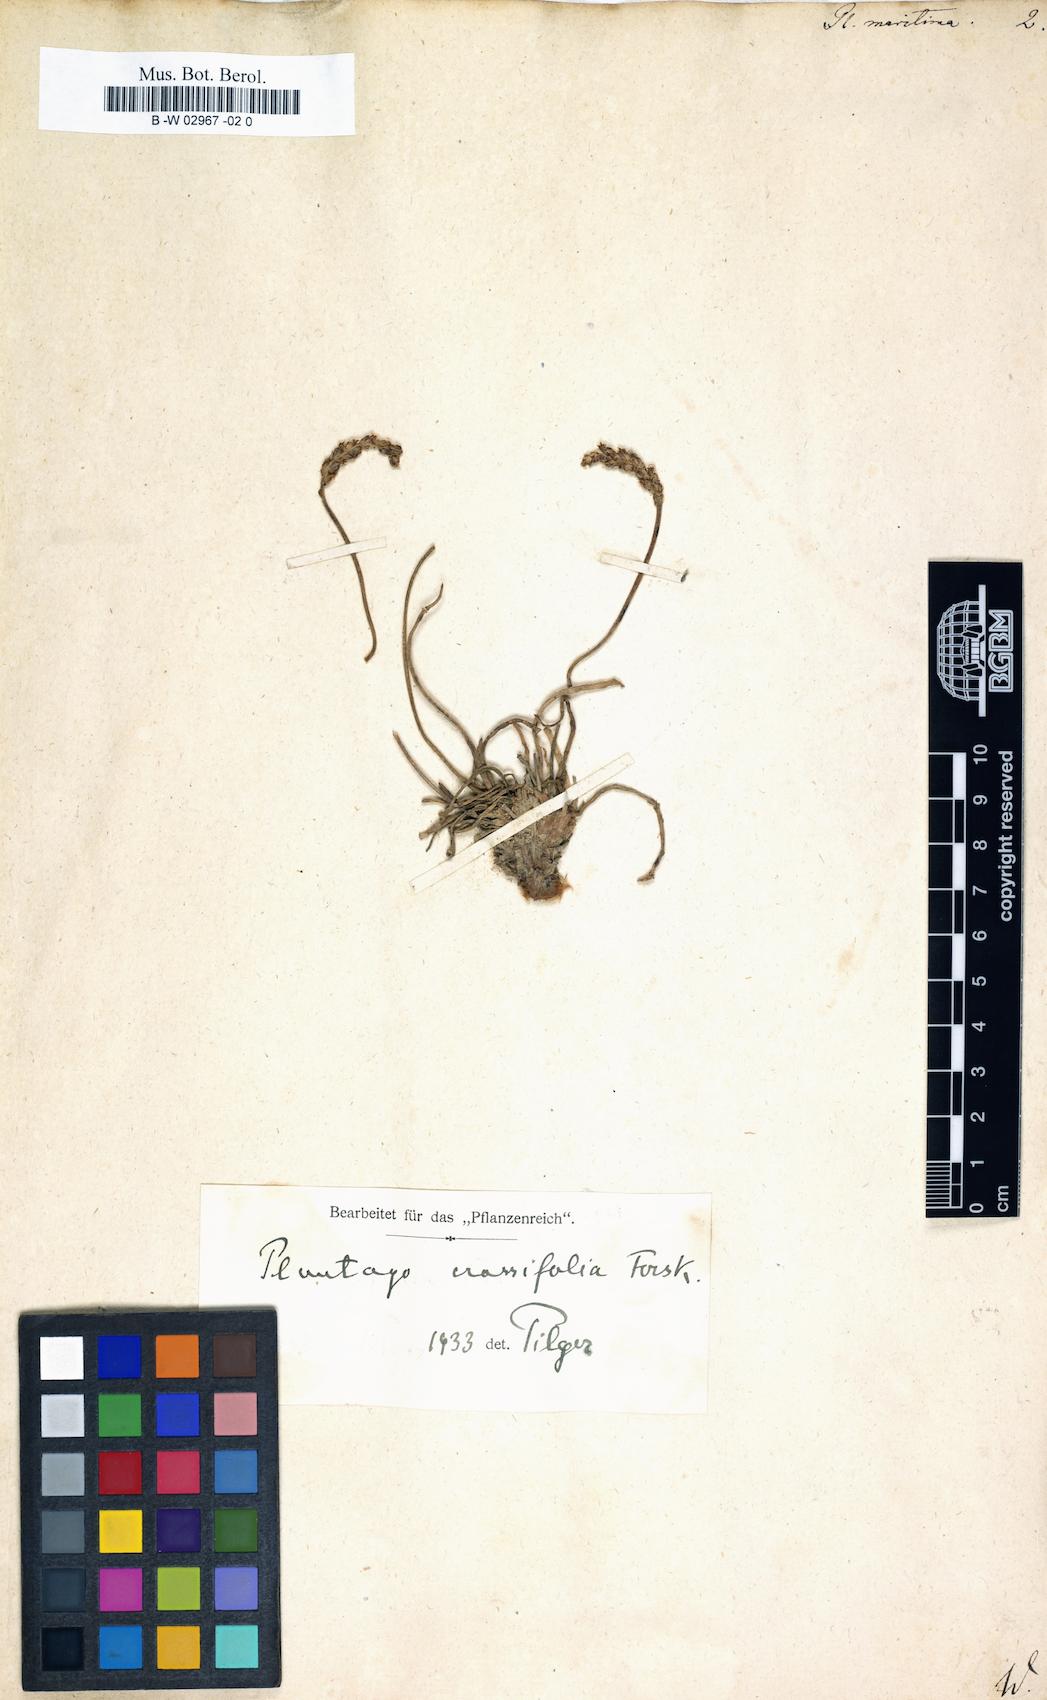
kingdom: Plantae
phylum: Tracheophyta
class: Magnoliopsida
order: Lamiales
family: Plantaginaceae
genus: Plantago
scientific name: Plantago maritima
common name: Sea plantain
